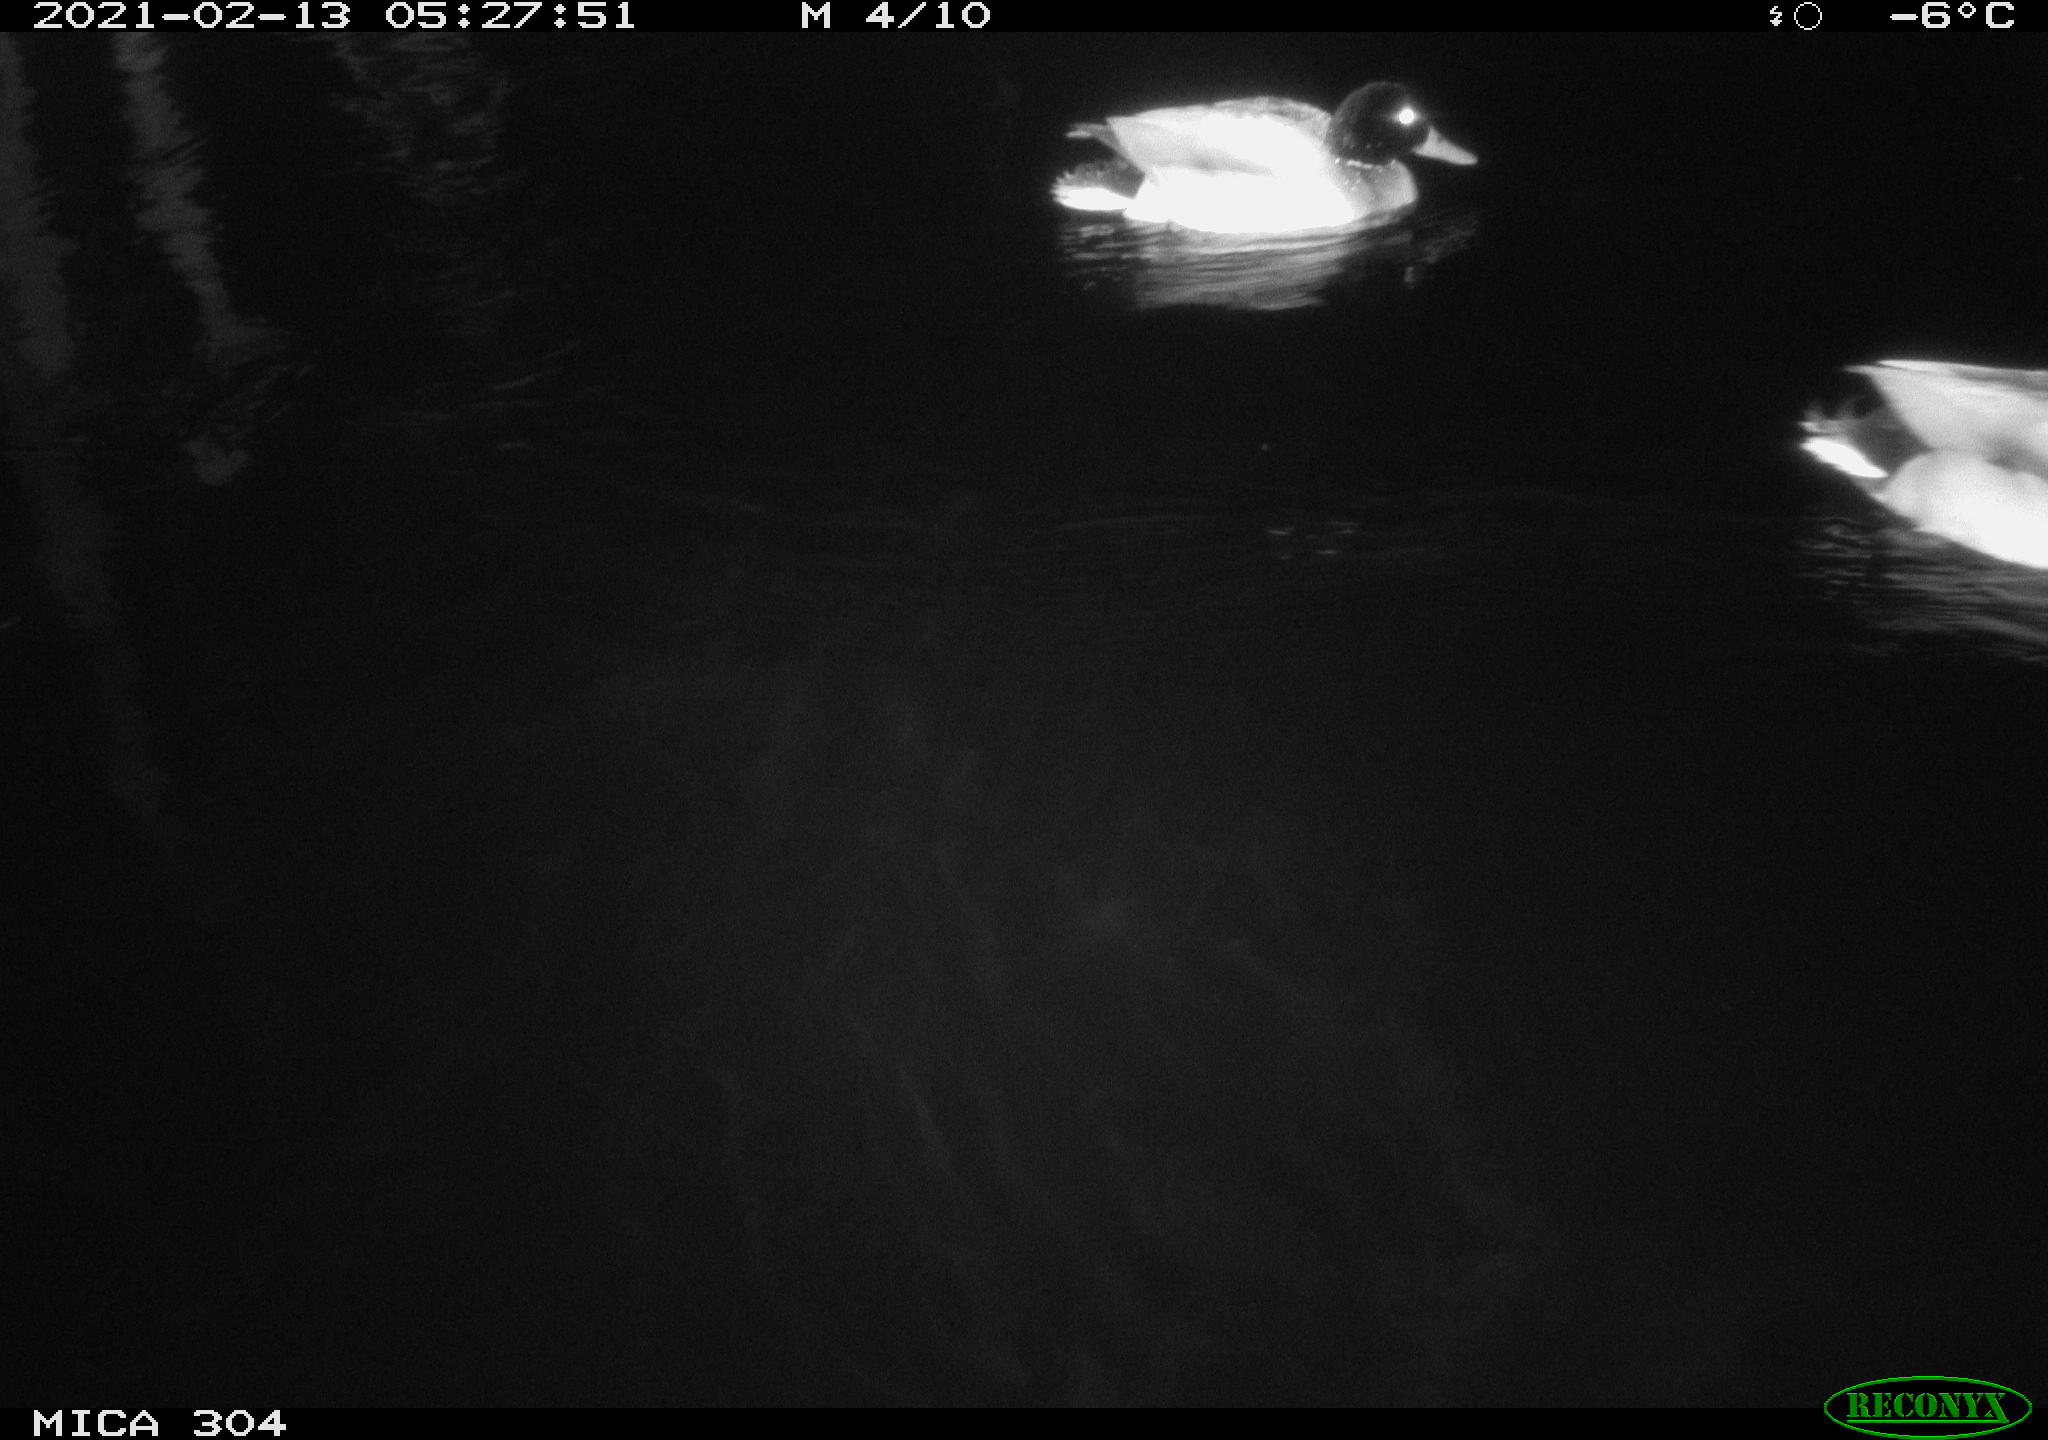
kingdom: Animalia
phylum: Chordata
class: Aves
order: Anseriformes
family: Anatidae
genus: Anas
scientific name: Anas platyrhynchos
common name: Mallard
